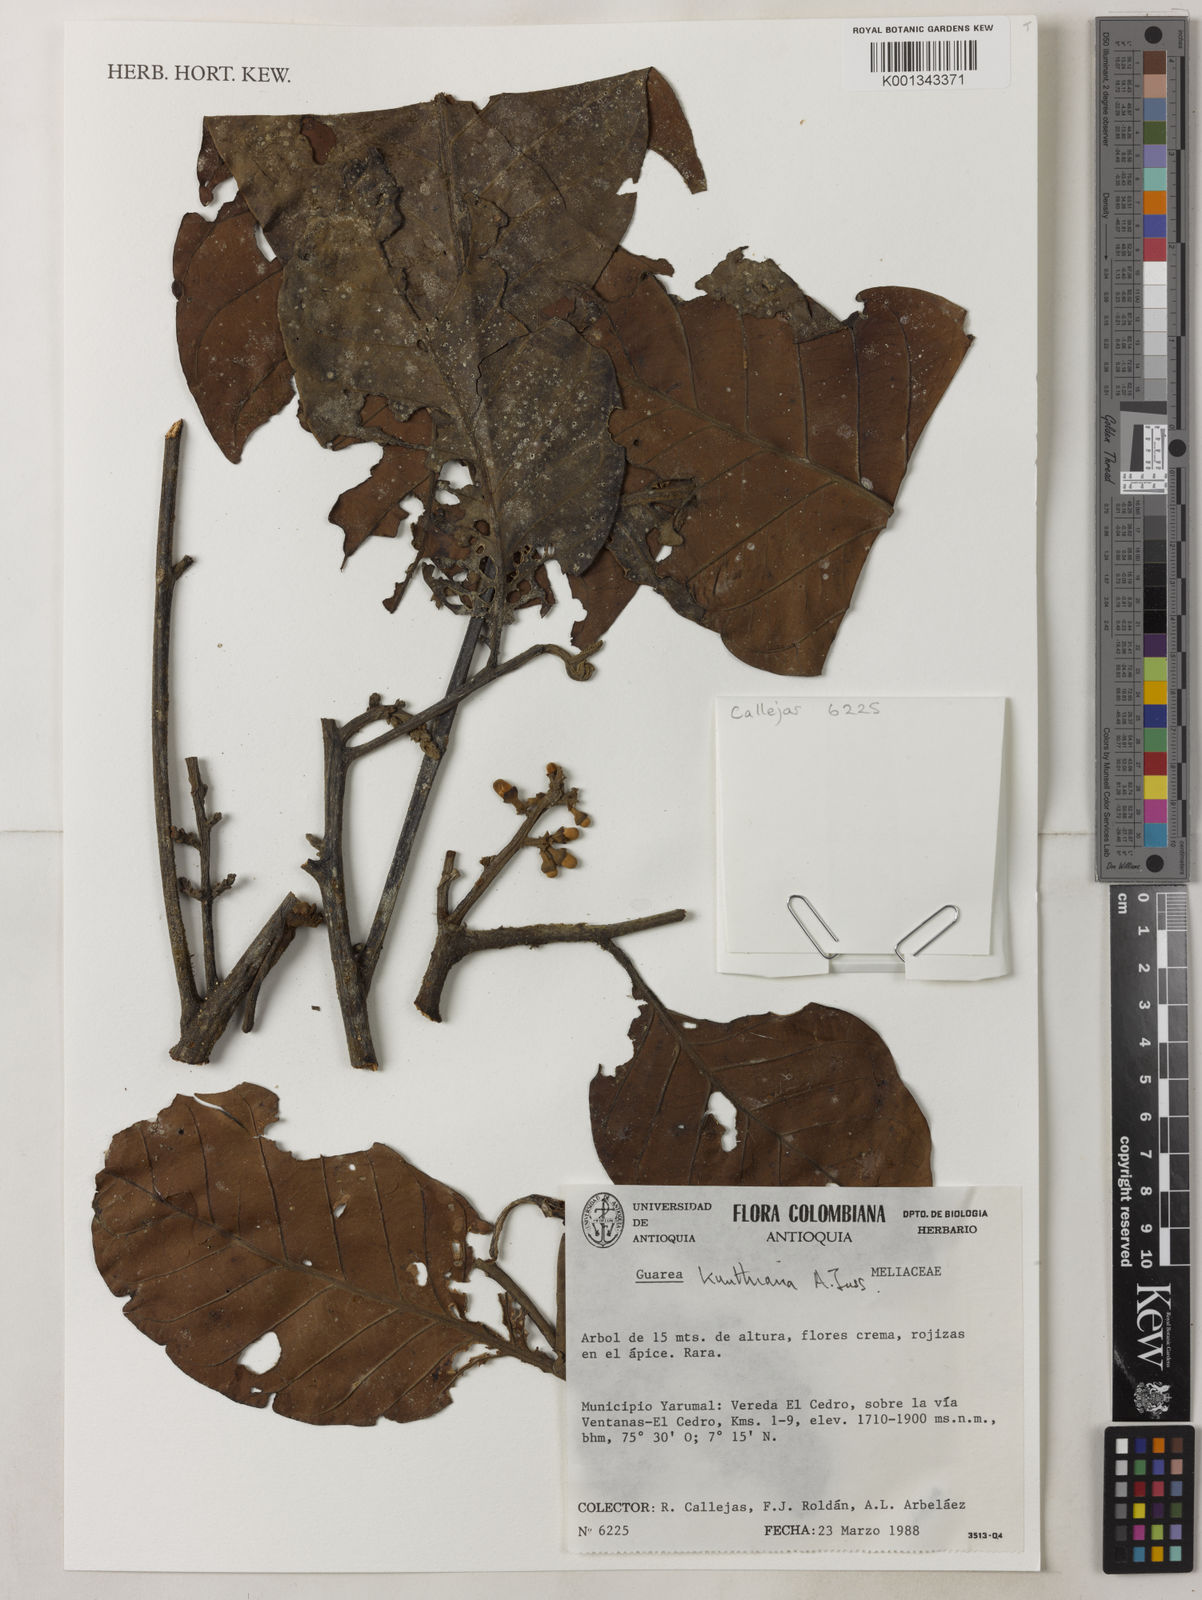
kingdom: Plantae
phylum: Tracheophyta
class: Magnoliopsida
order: Sapindales
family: Meliaceae
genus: Guarea
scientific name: Guarea kunthiana
